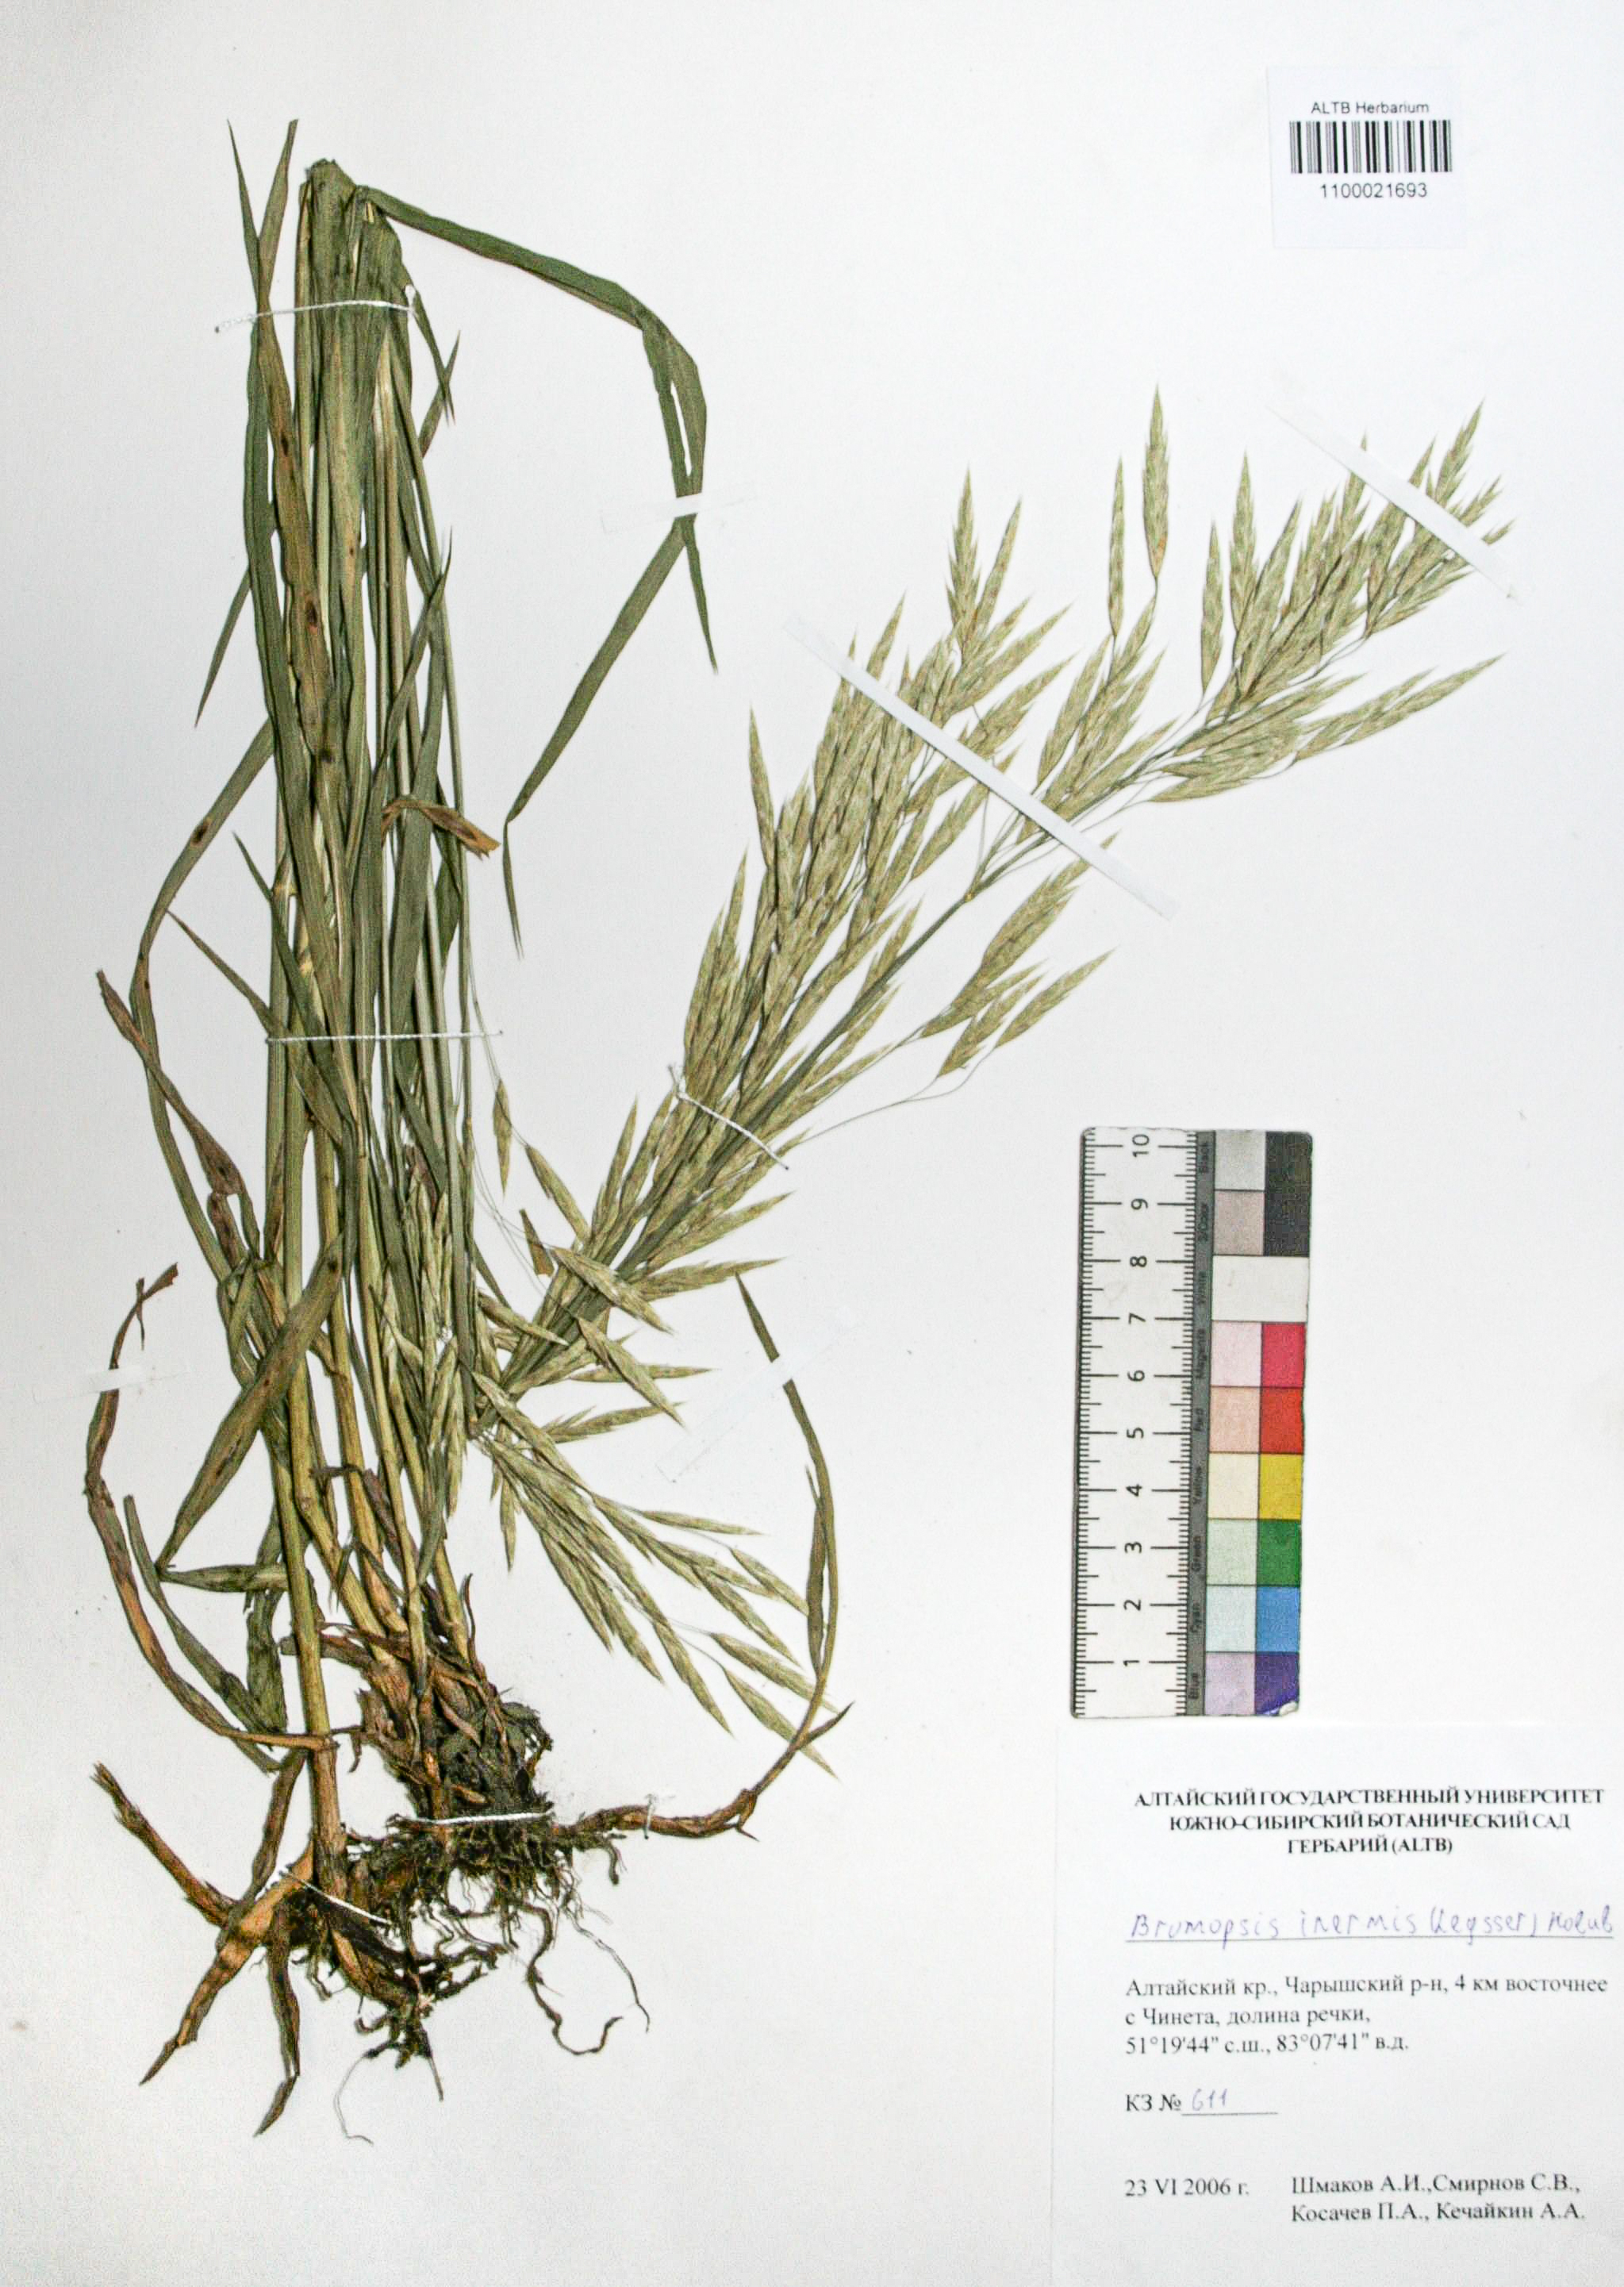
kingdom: Plantae
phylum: Tracheophyta
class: Liliopsida
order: Poales
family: Poaceae
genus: Bromus
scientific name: Bromus inermis
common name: Smooth brome
